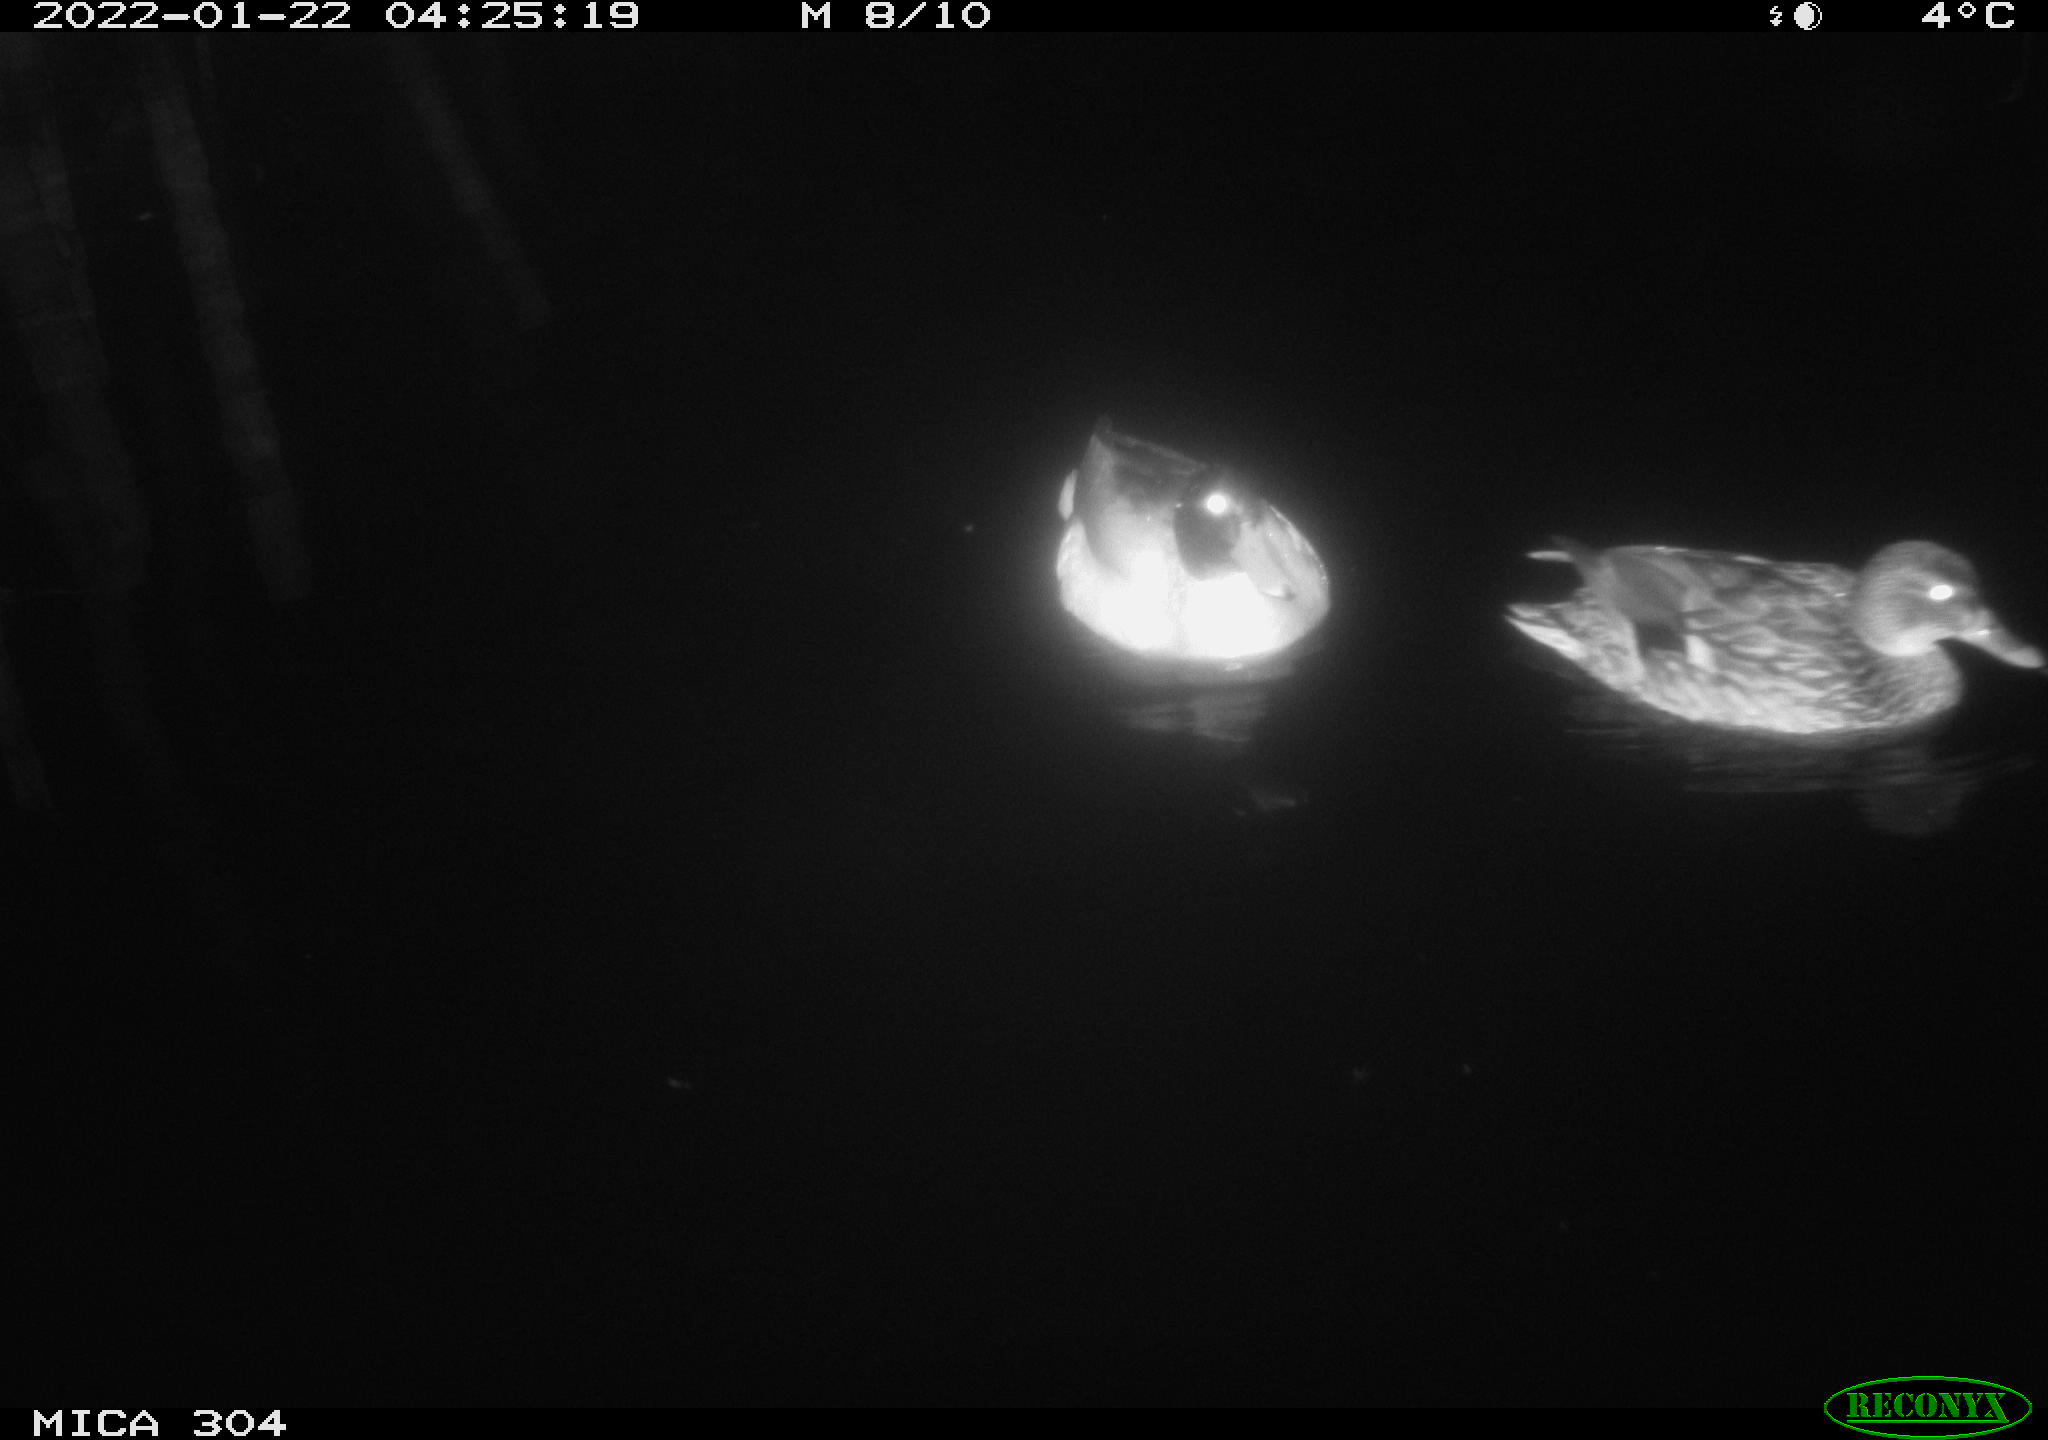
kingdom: Animalia
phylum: Chordata
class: Aves
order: Anseriformes
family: Anatidae
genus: Anas
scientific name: Anas
